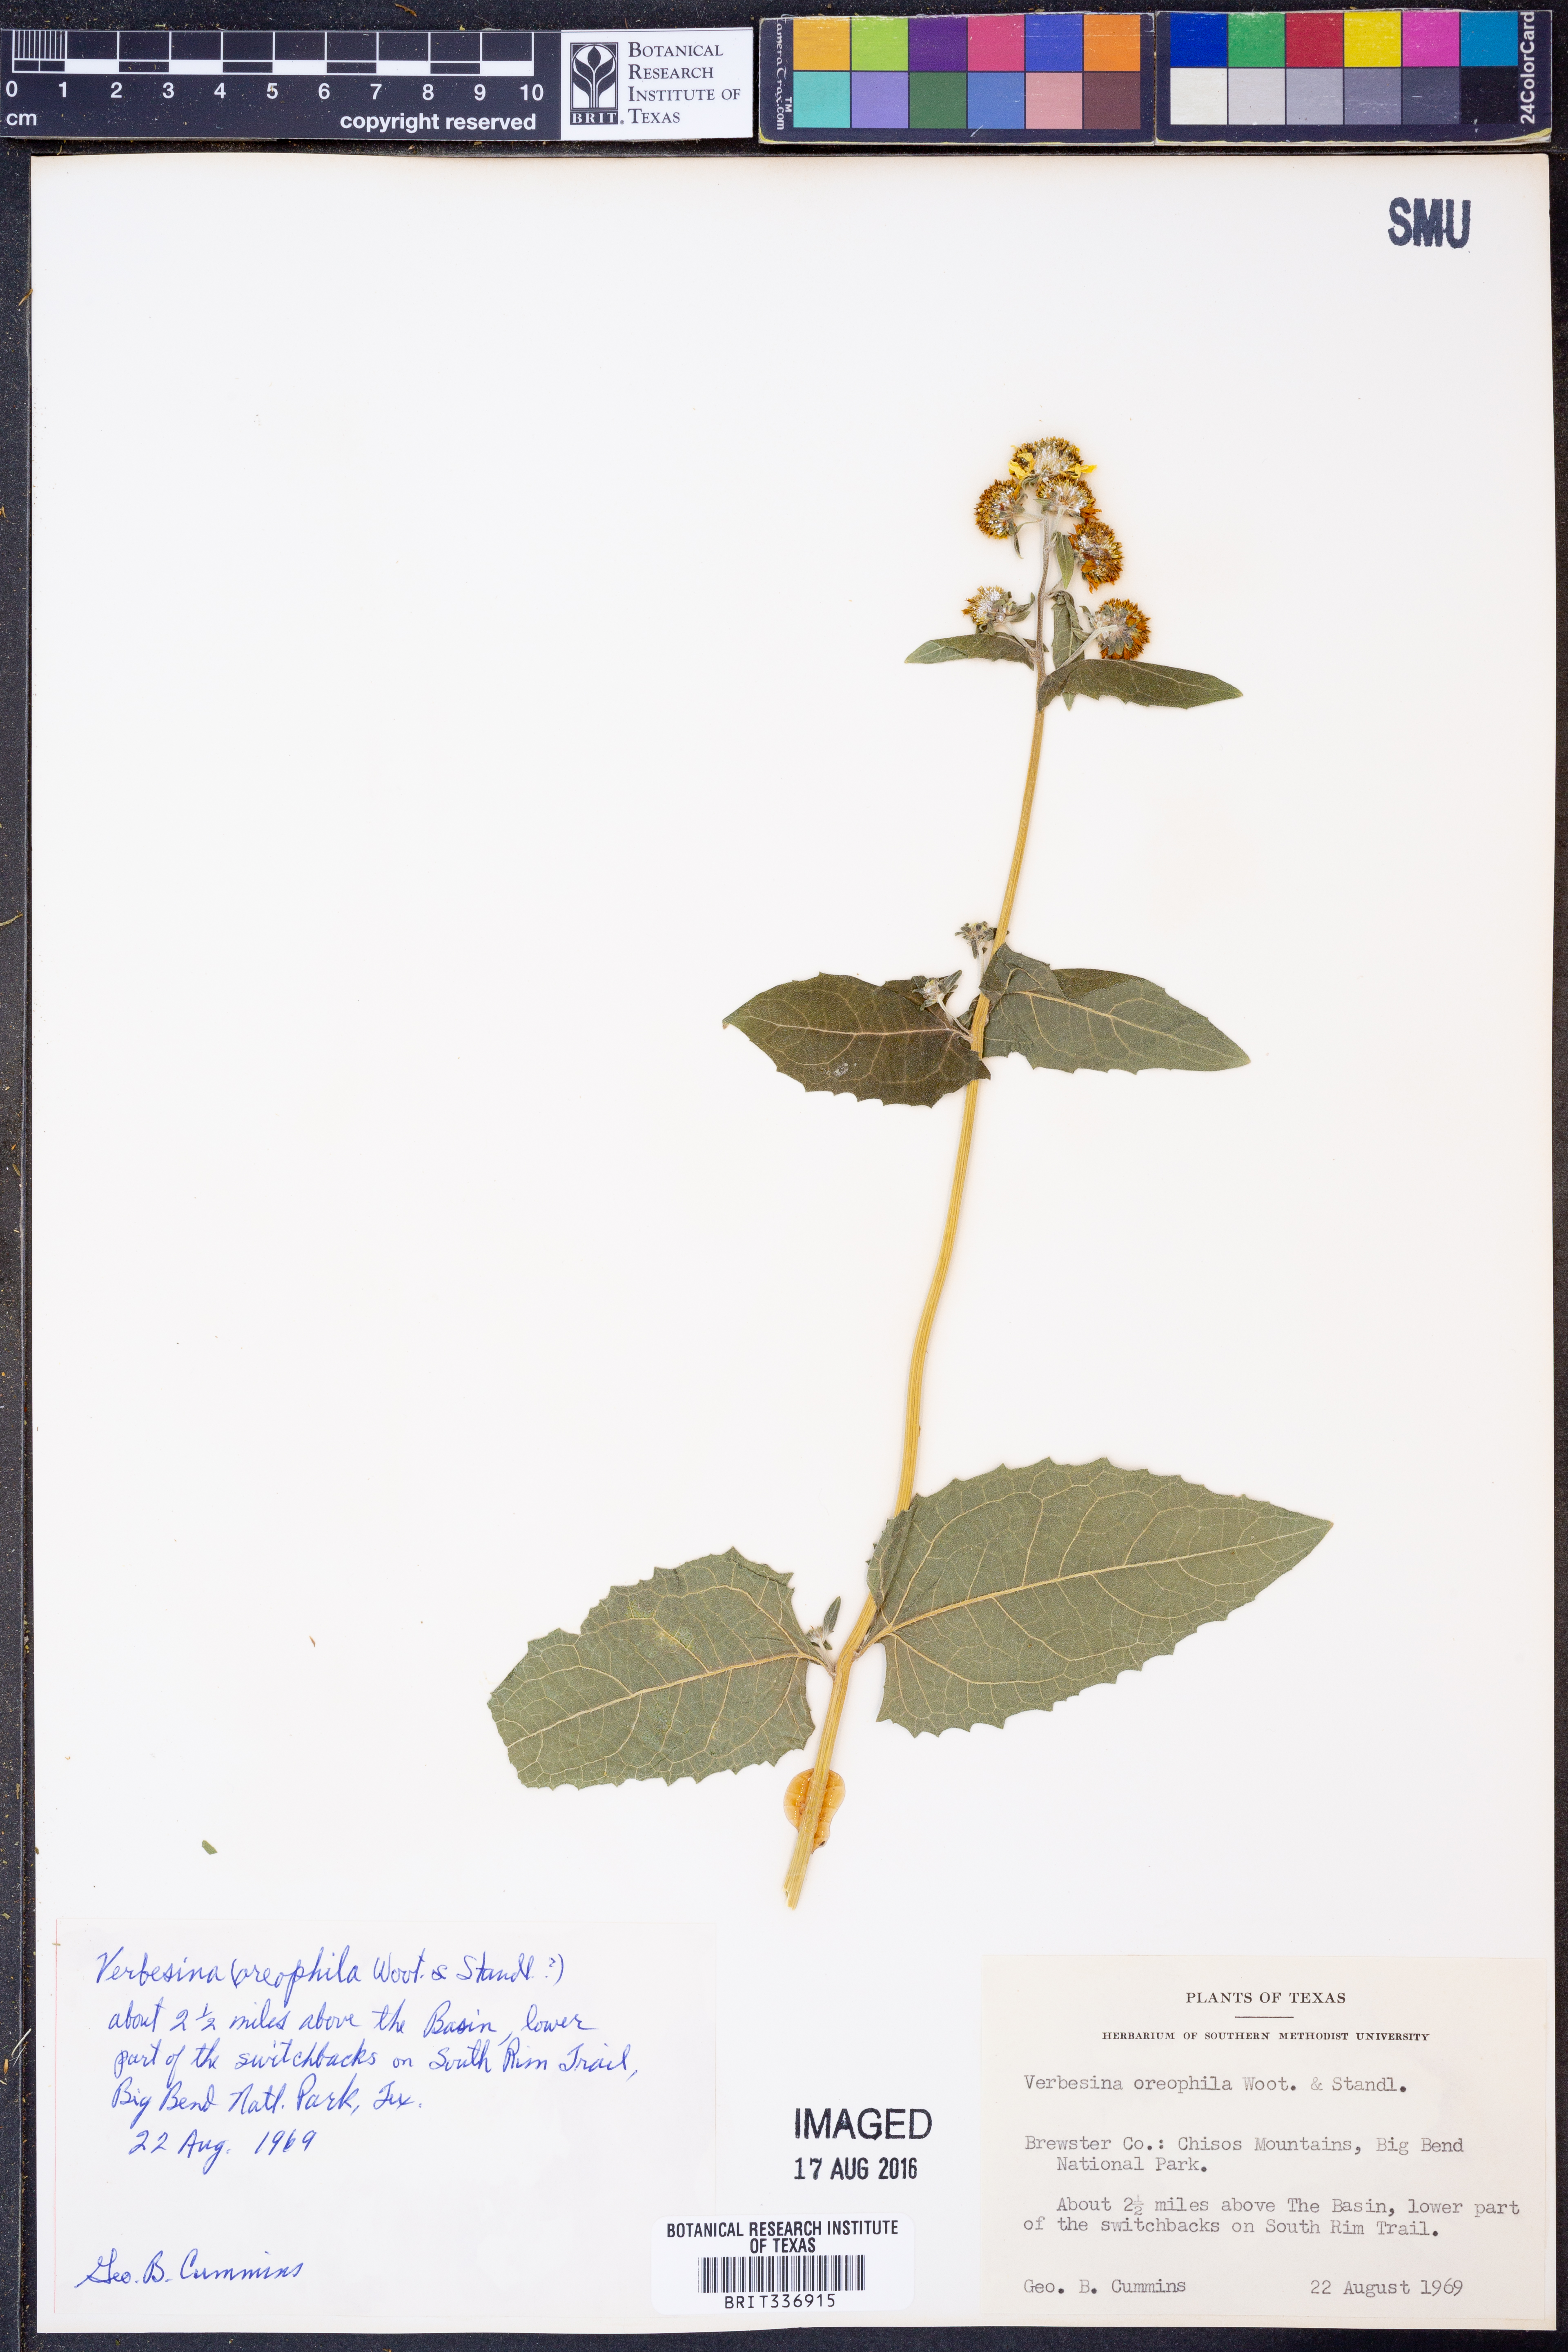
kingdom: Plantae
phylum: Tracheophyta
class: Magnoliopsida
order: Asterales
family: Asteraceae
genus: Verbesina
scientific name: Verbesina oreophila
